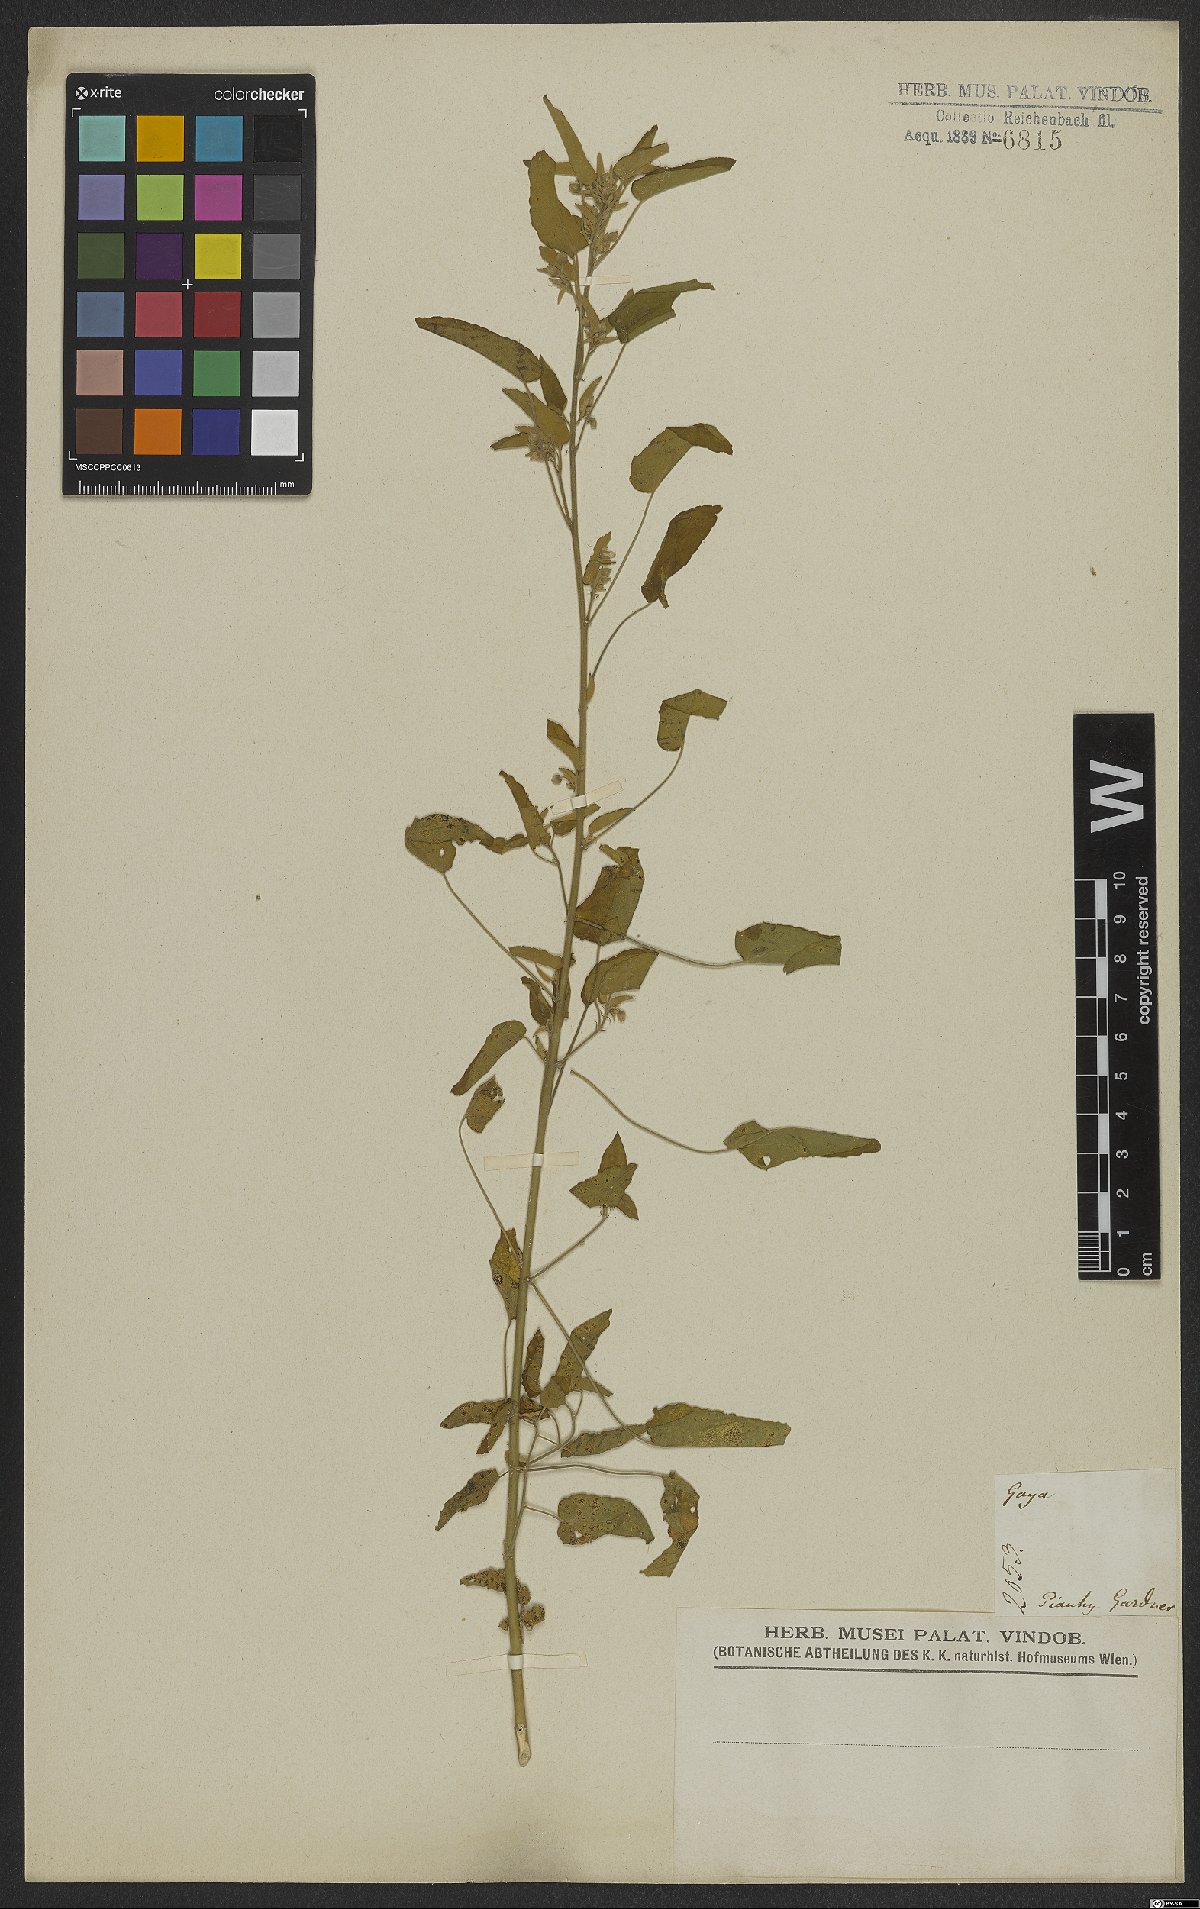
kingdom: Plantae
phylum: Tracheophyta
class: Magnoliopsida
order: Malvales
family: Malvaceae
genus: Gaya
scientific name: Gaya
